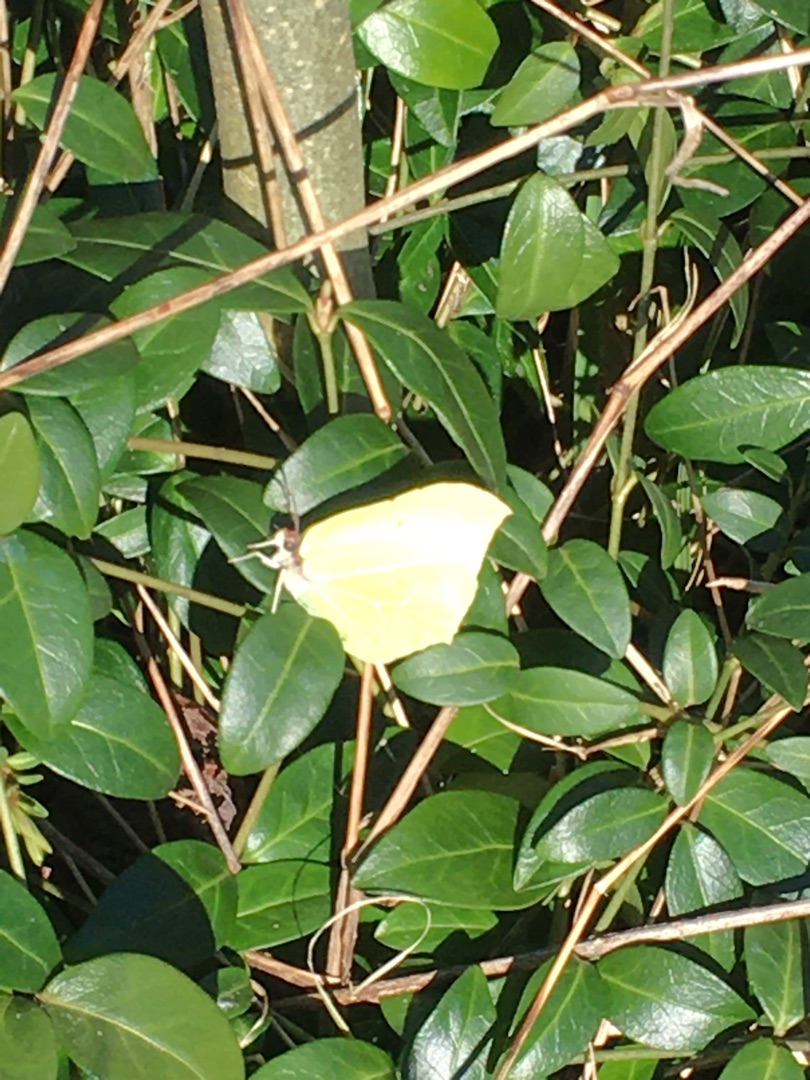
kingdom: Animalia
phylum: Arthropoda
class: Insecta
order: Lepidoptera
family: Pieridae
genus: Gonepteryx
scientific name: Gonepteryx rhamni
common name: Citronsommerfugl
